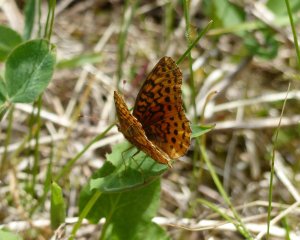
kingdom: Animalia
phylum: Arthropoda
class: Insecta
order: Lepidoptera
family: Nymphalidae
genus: Clossiana
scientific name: Clossiana toddi
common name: Meadow Fritillary
